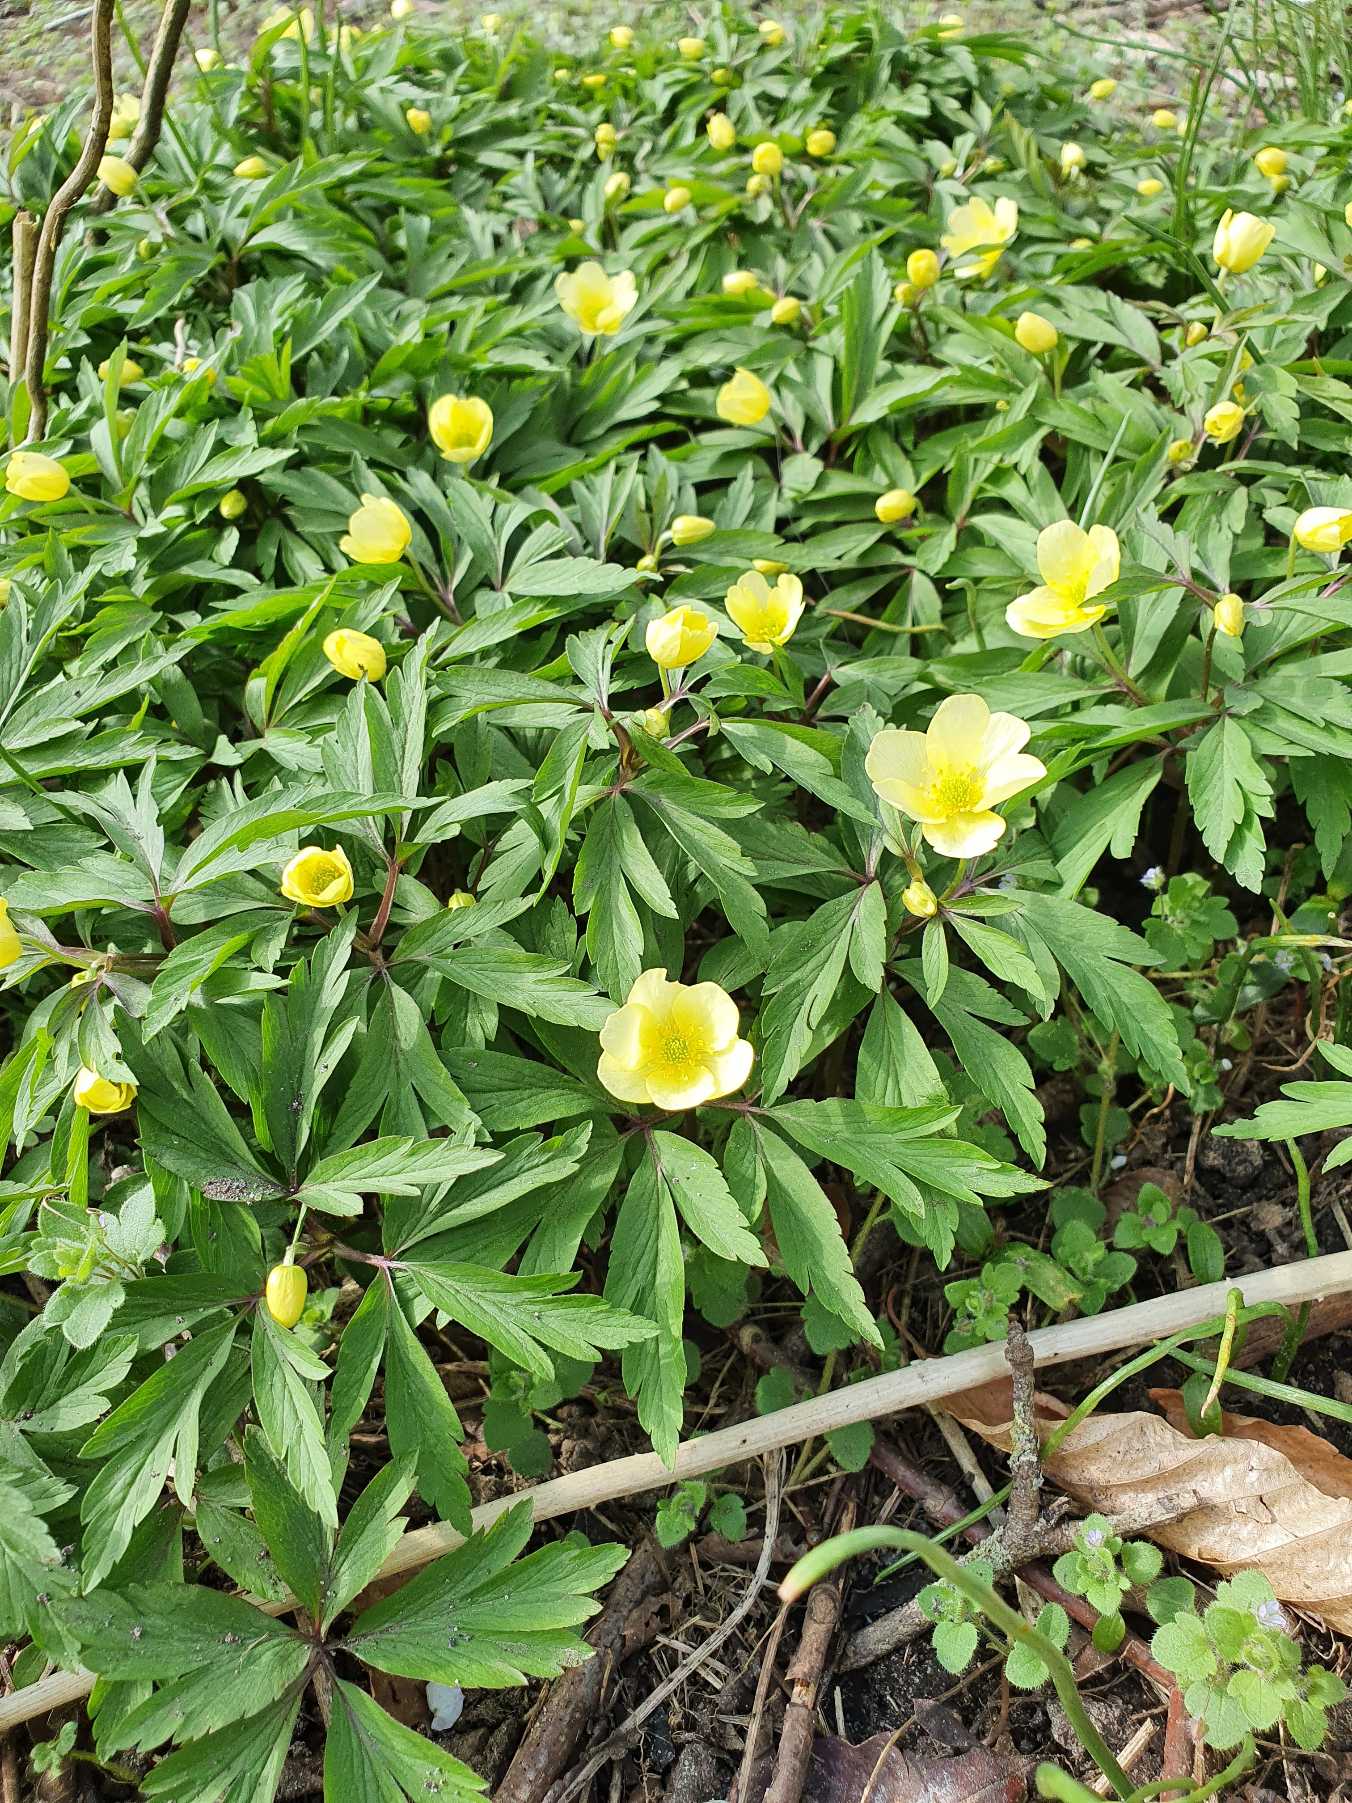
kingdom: Plantae
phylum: Tracheophyta
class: Magnoliopsida
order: Ranunculales
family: Ranunculaceae
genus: Anemone
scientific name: Anemone
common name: Svovlgul anemone
